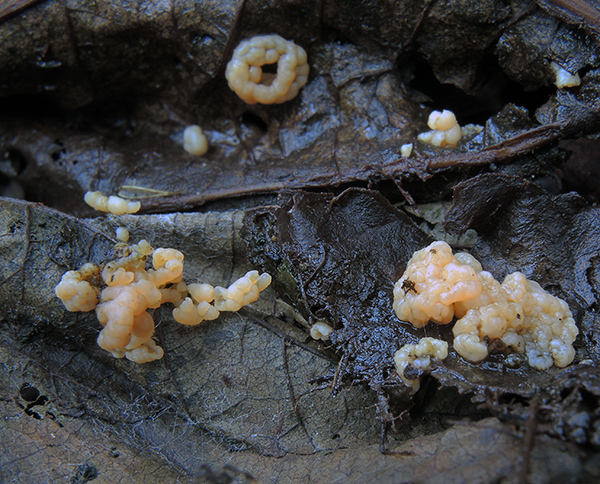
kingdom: Fungi
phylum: Basidiomycota
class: Tremellomycetes
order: Tremellales
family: Rhynchogastremaceae
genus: Tetragoniomyces
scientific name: Tetragoniomyces uliginosus
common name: sklerotie-snyltehjerne
